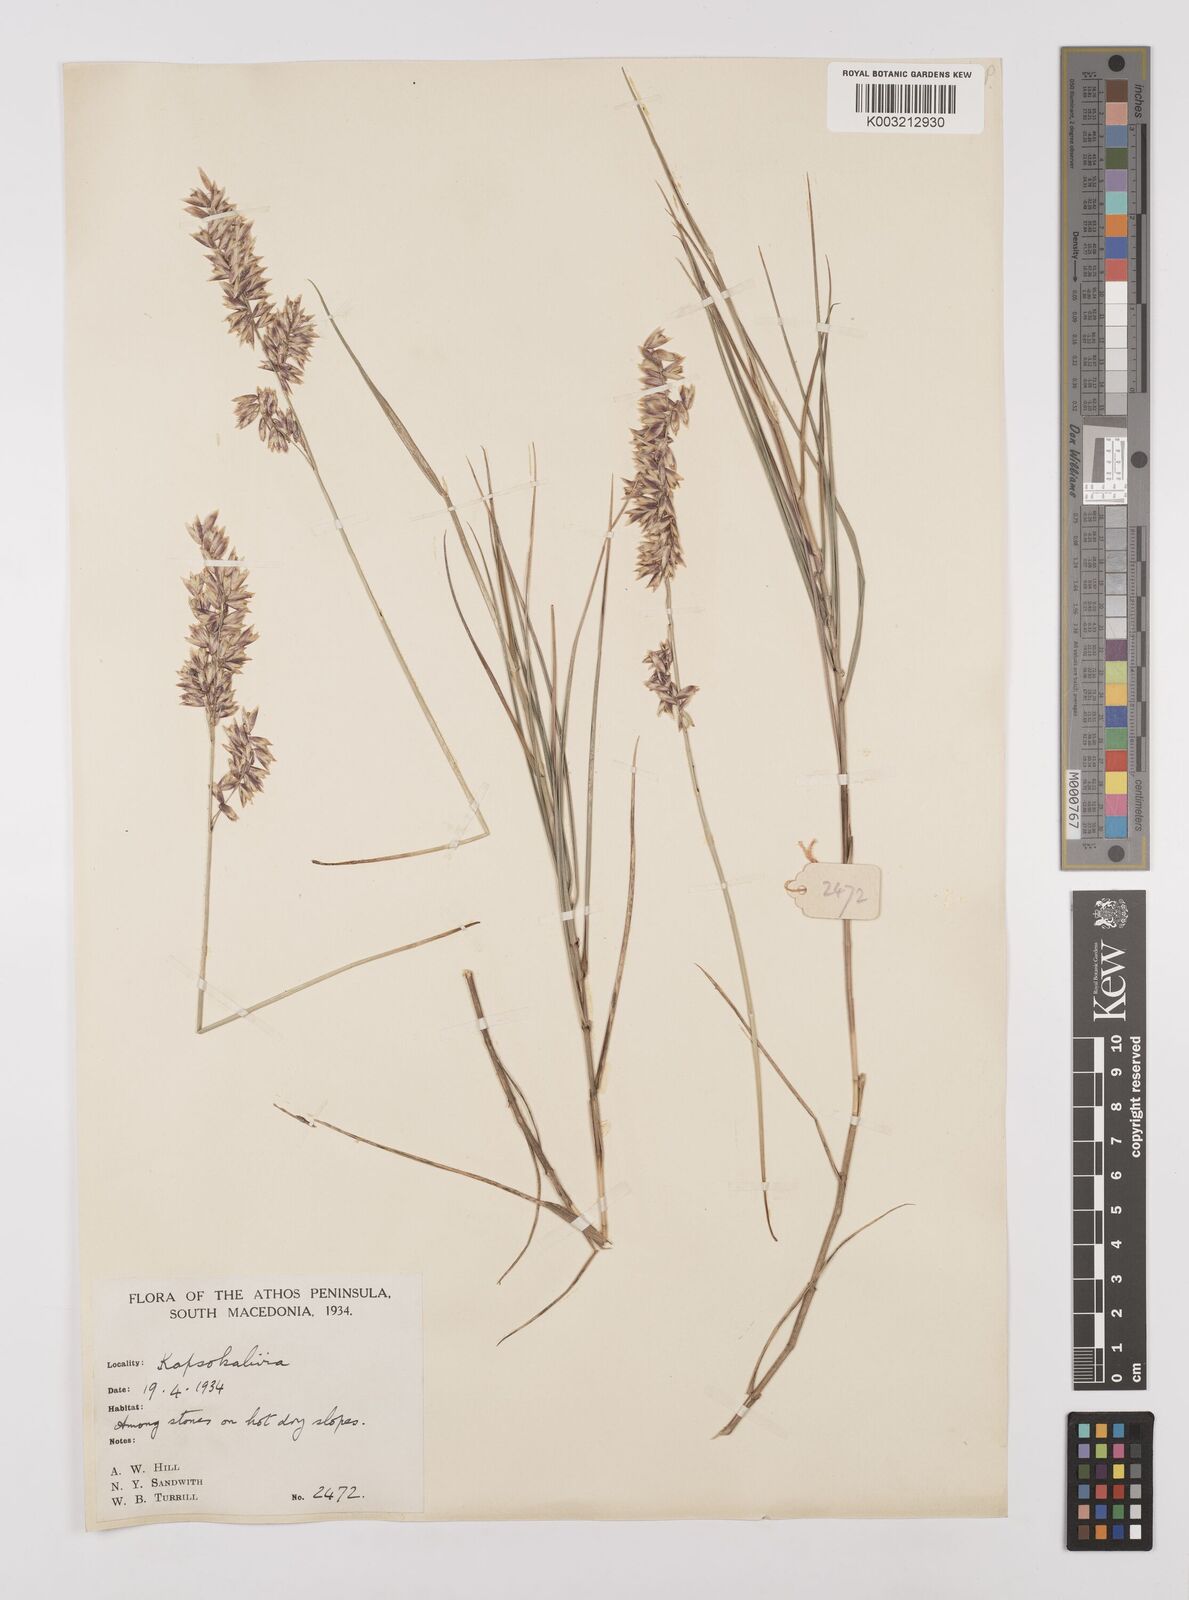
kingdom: Plantae
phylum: Tracheophyta
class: Liliopsida
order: Poales
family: Poaceae
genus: Melica
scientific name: Melica minuta
